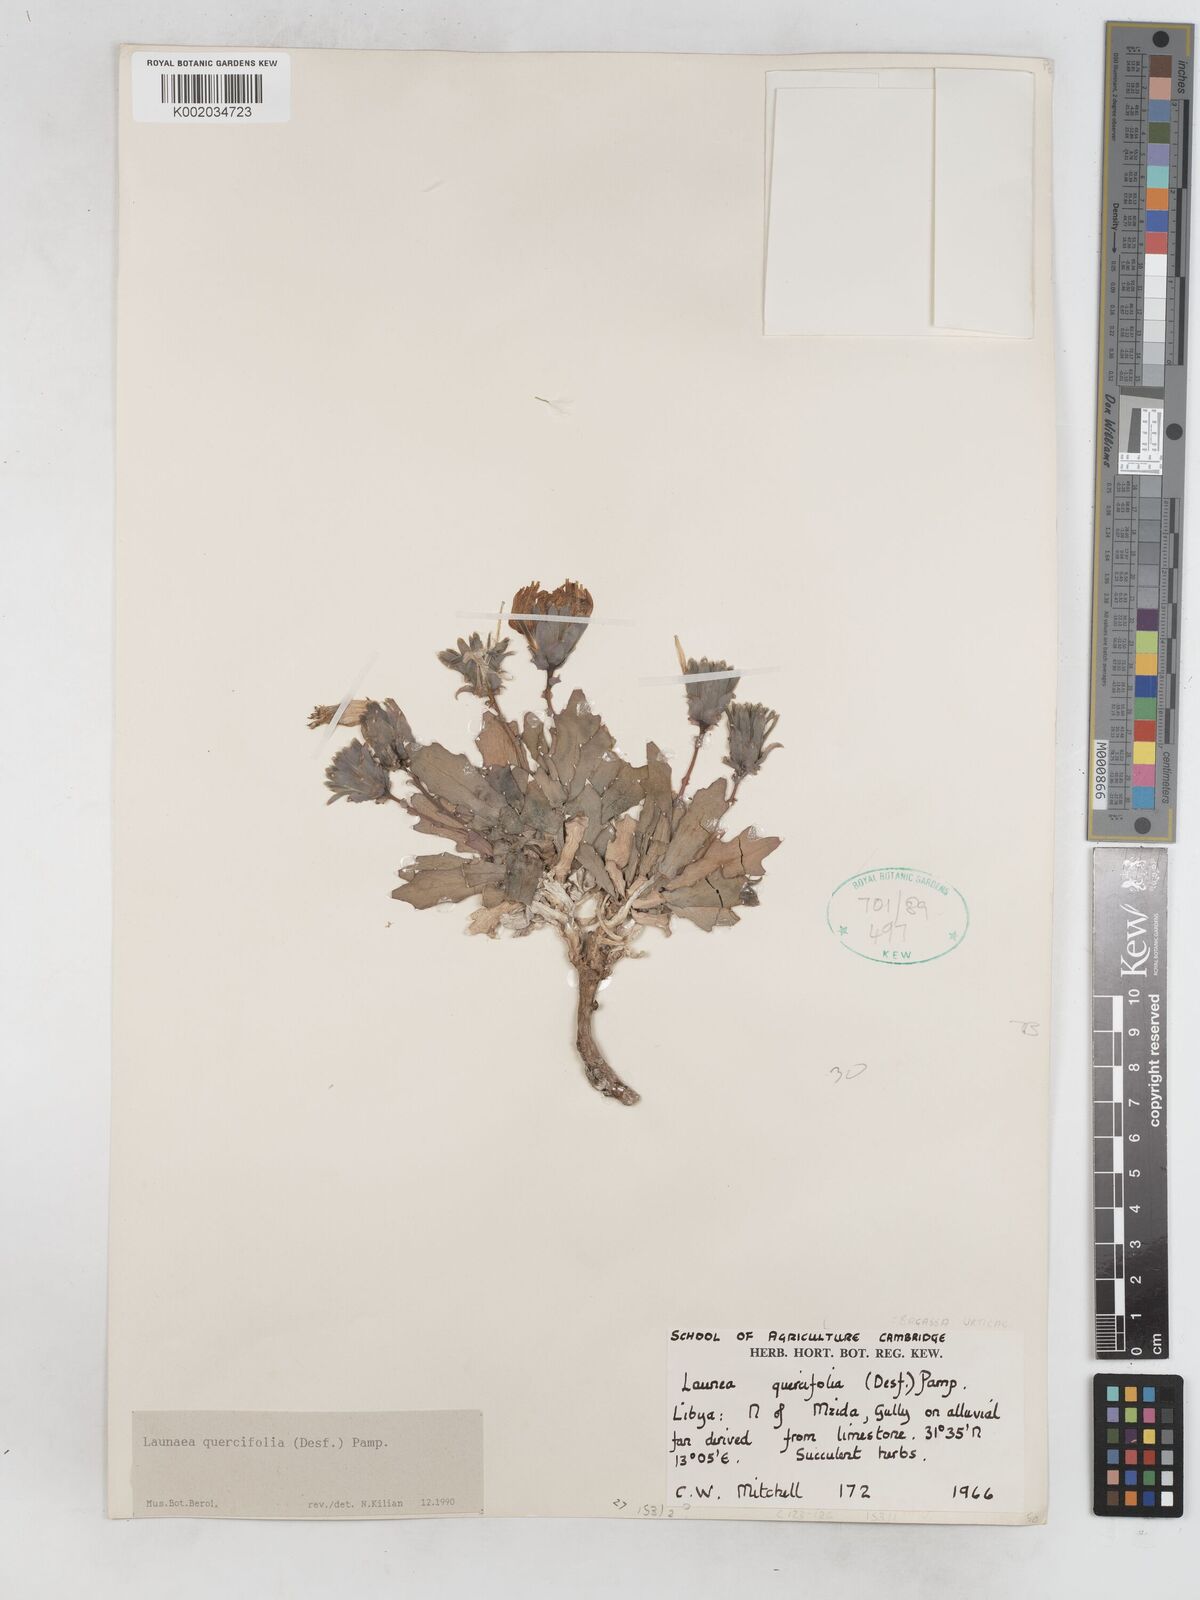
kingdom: Plantae
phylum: Tracheophyta
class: Magnoliopsida
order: Asterales
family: Asteraceae
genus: Launaea
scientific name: Launaea quercifolia
